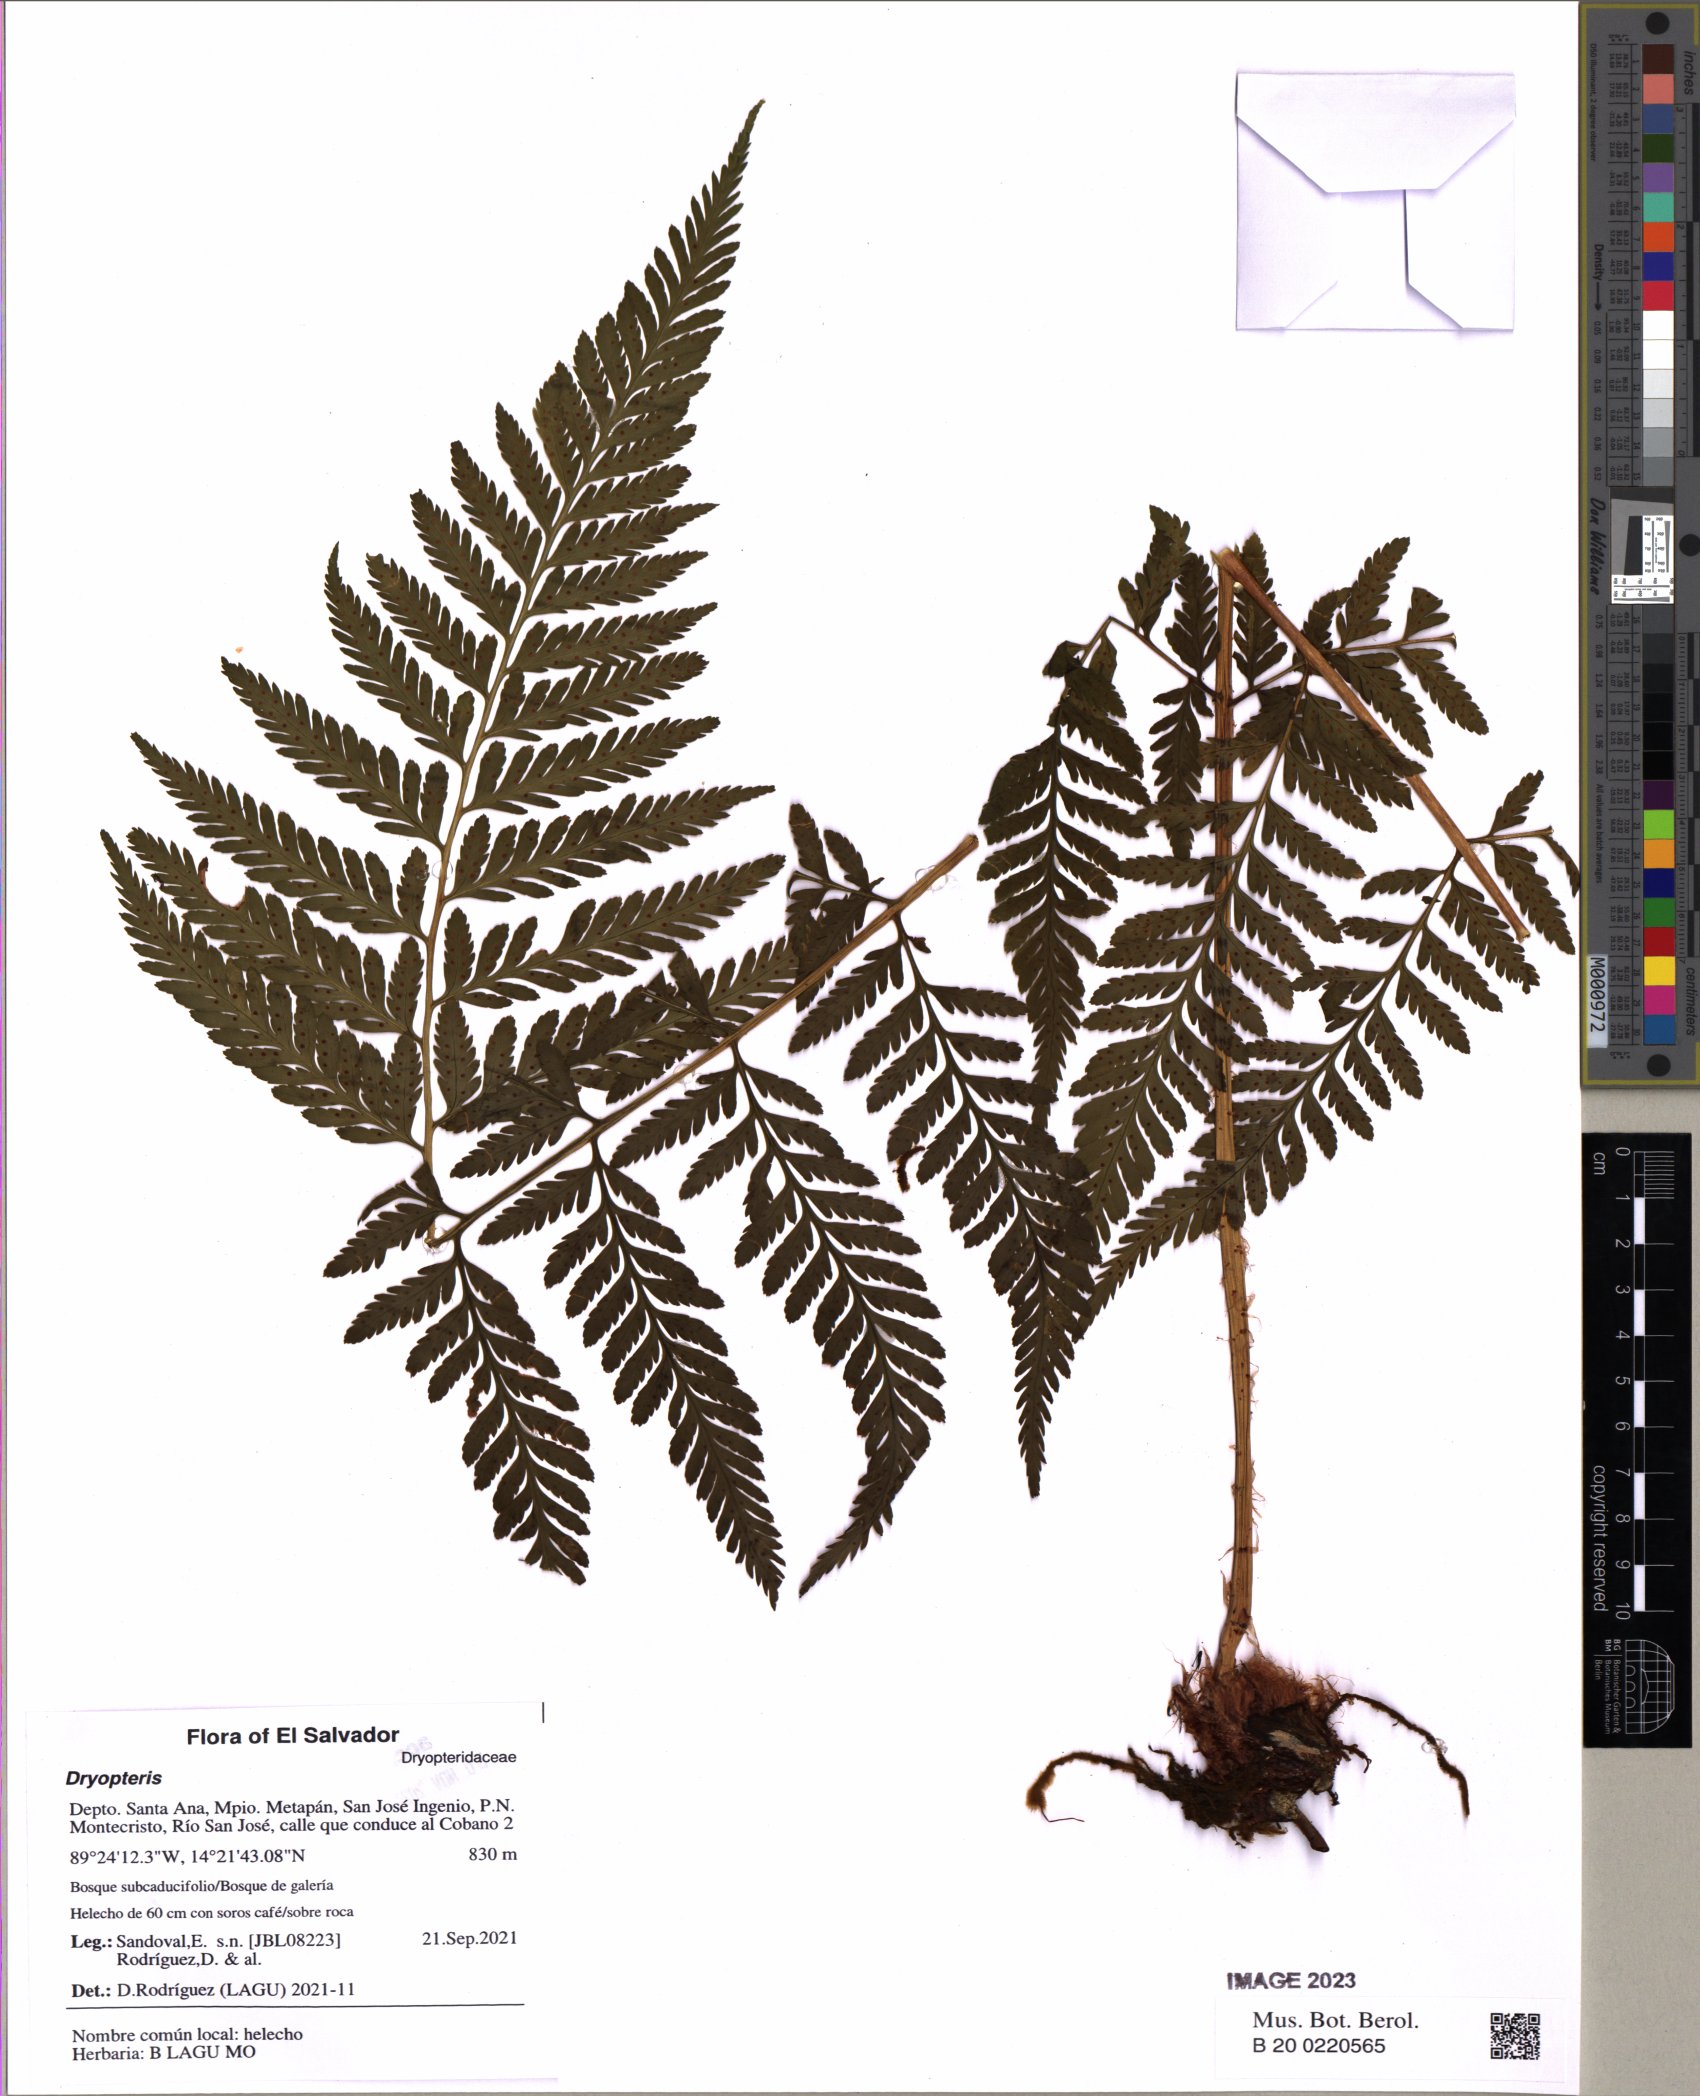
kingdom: Plantae
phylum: Tracheophyta
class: Polypodiopsida
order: Polypodiales
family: Dryopteridaceae
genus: Dryopteris
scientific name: Dryopteris
